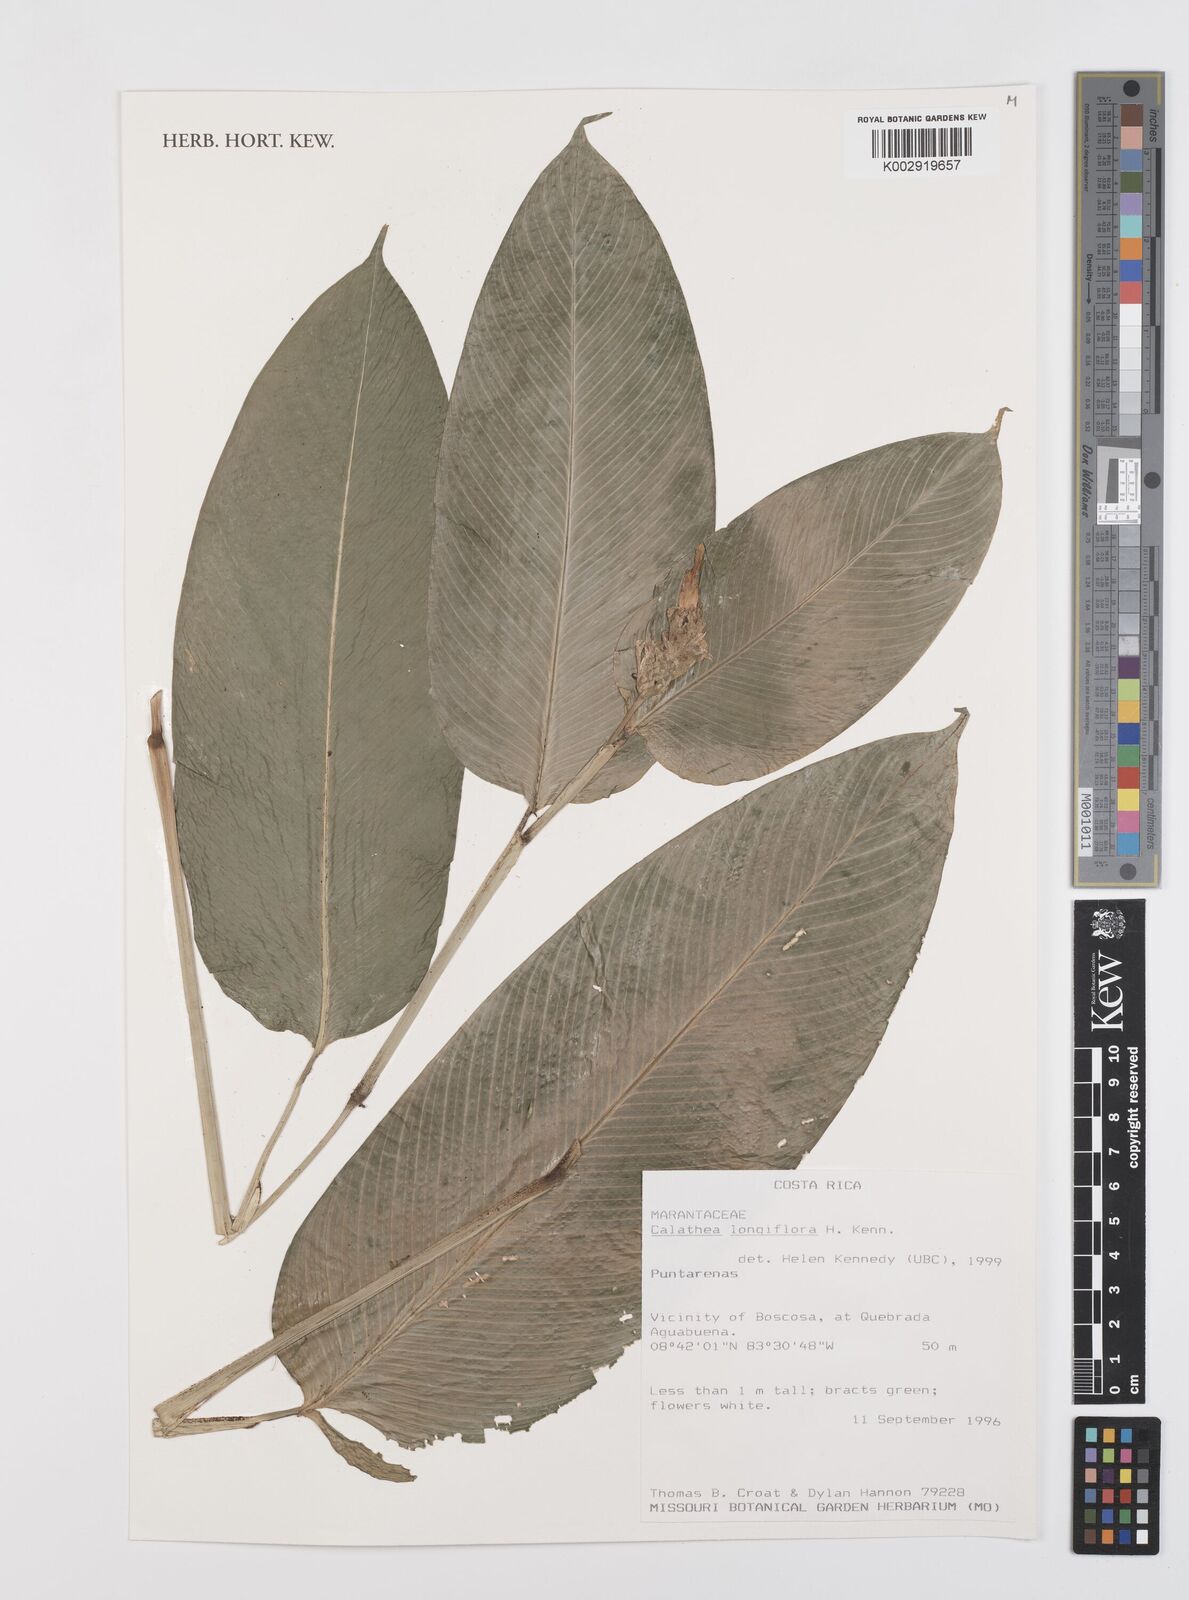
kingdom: Plantae
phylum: Tracheophyta
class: Liliopsida
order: Zingiberales
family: Marantaceae
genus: Goeppertia
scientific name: Goeppertia longiflora
